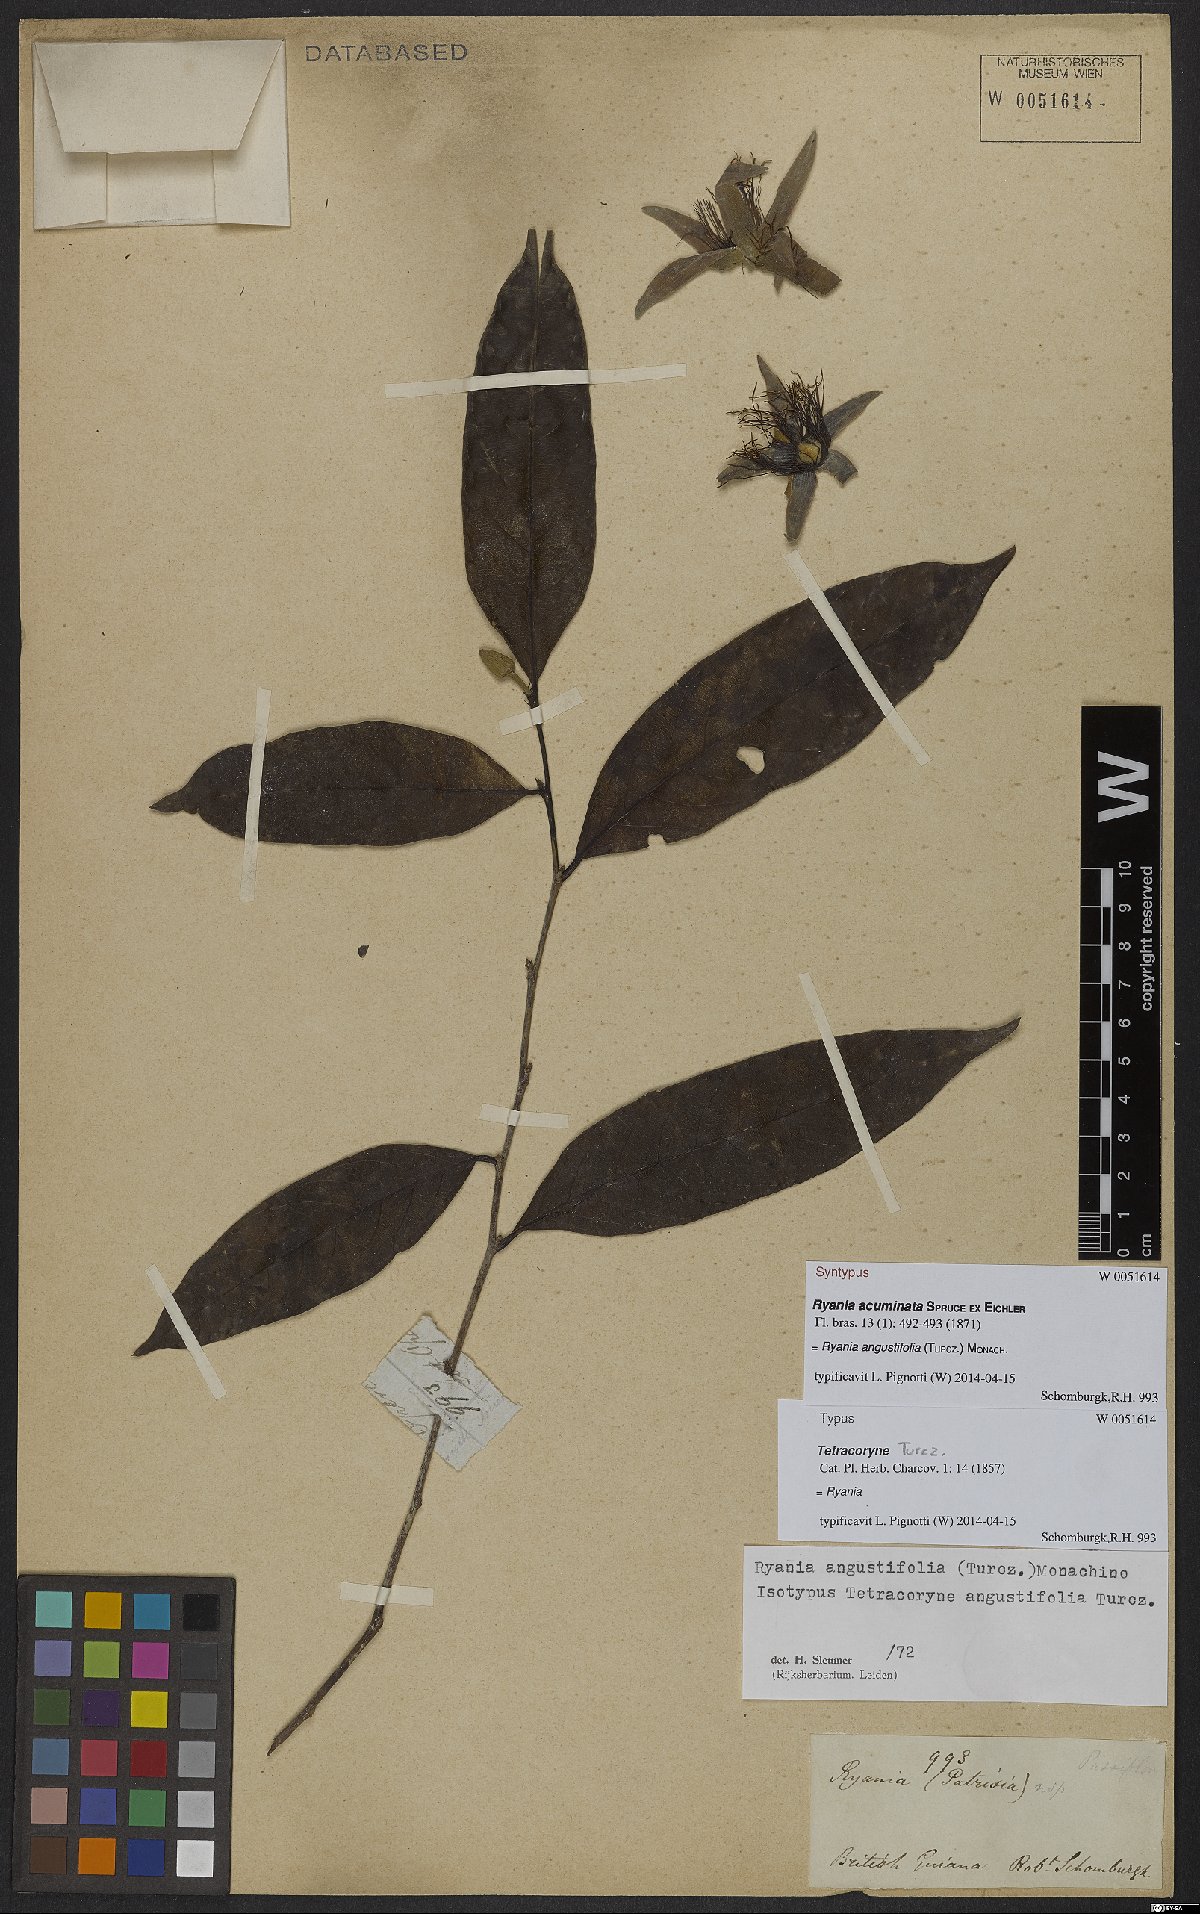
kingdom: Plantae
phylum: Tracheophyta
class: Magnoliopsida
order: Malpighiales
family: Salicaceae
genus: Ryania
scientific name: Ryania angustifolia
